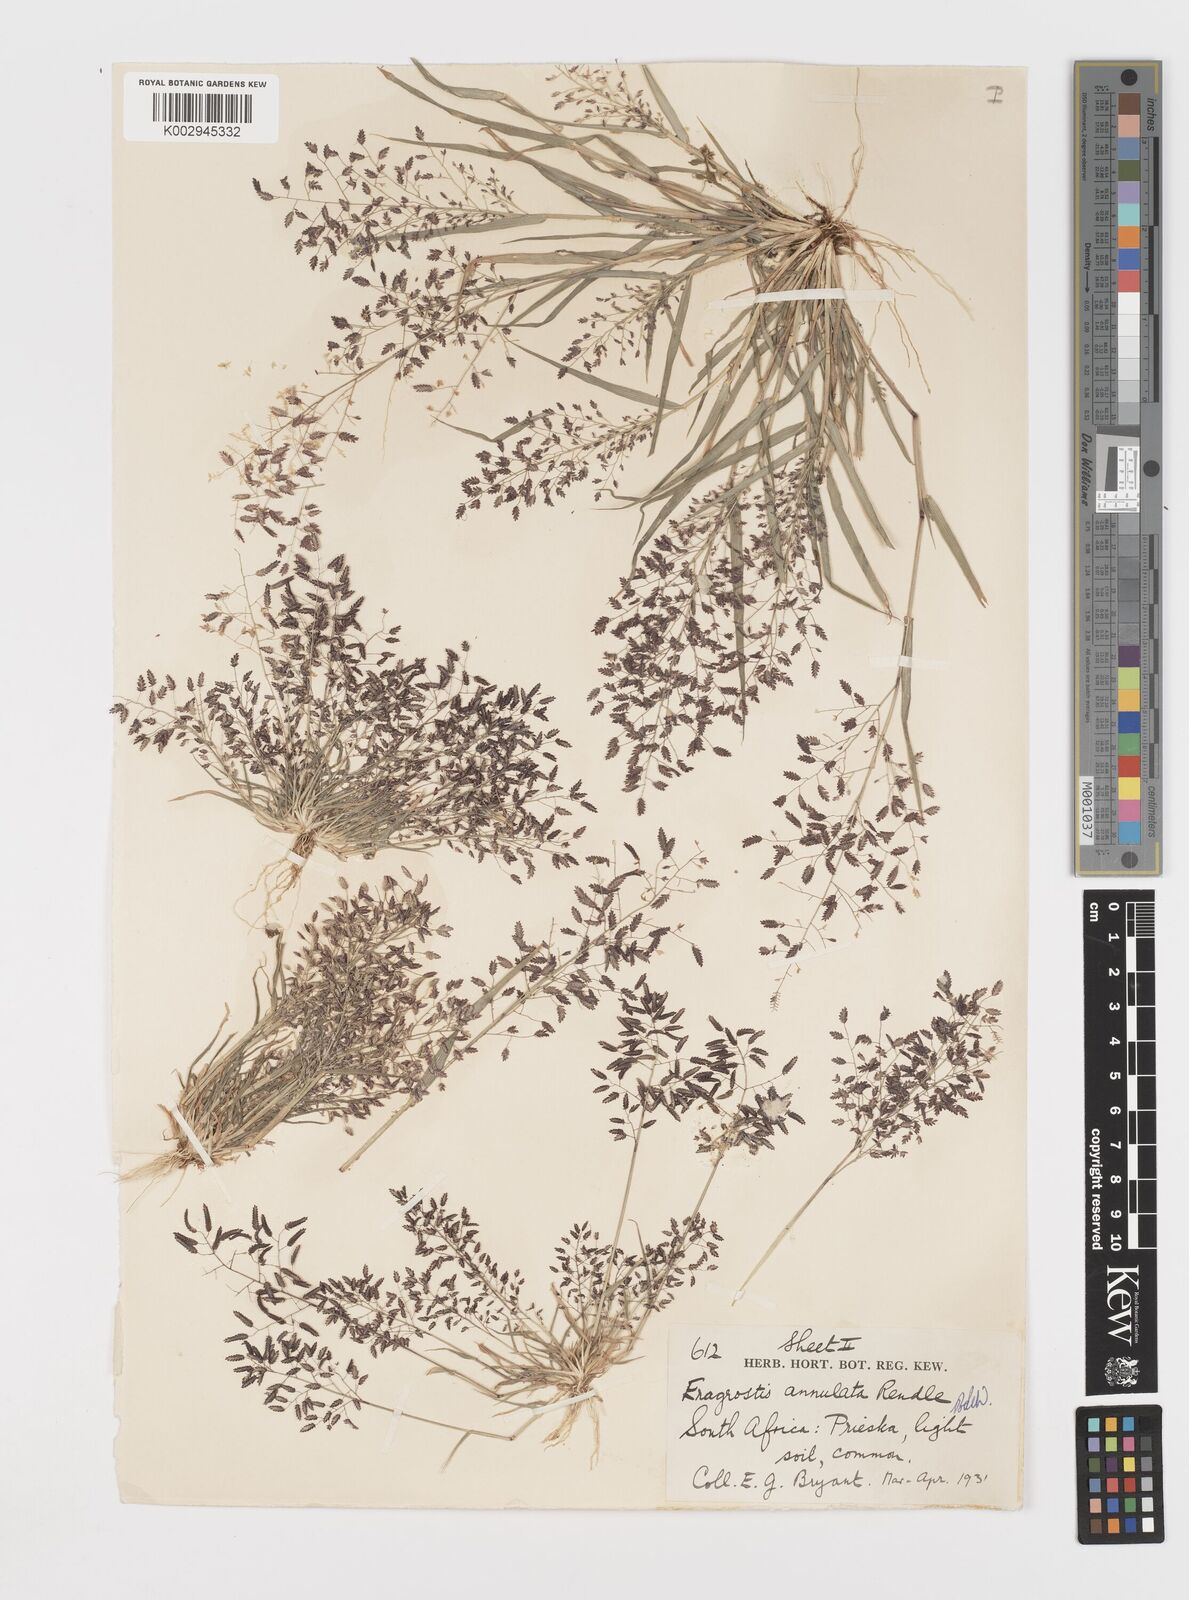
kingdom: Plantae
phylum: Tracheophyta
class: Liliopsida
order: Poales
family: Poaceae
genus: Eragrostis
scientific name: Eragrostis annulata
